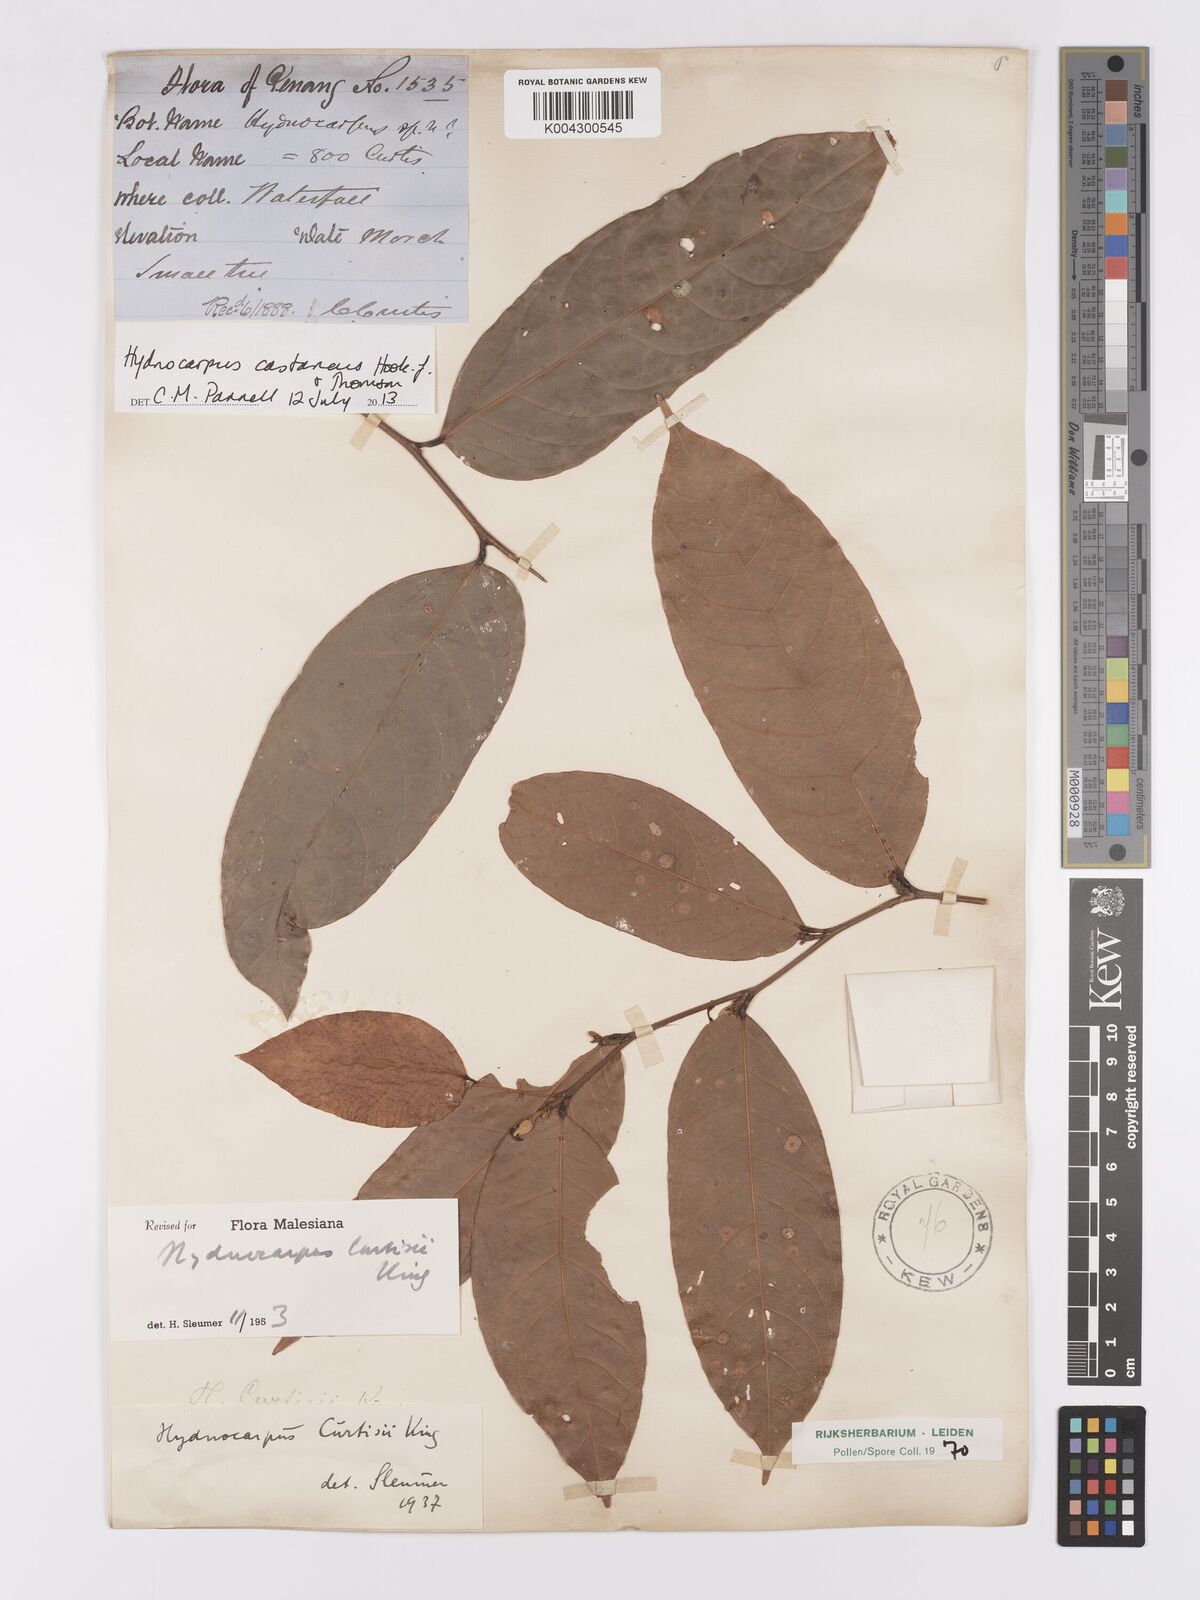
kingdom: Plantae
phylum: Tracheophyta
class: Magnoliopsida
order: Malpighiales
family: Achariaceae
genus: Hydnocarpus
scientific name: Hydnocarpus curtisii
